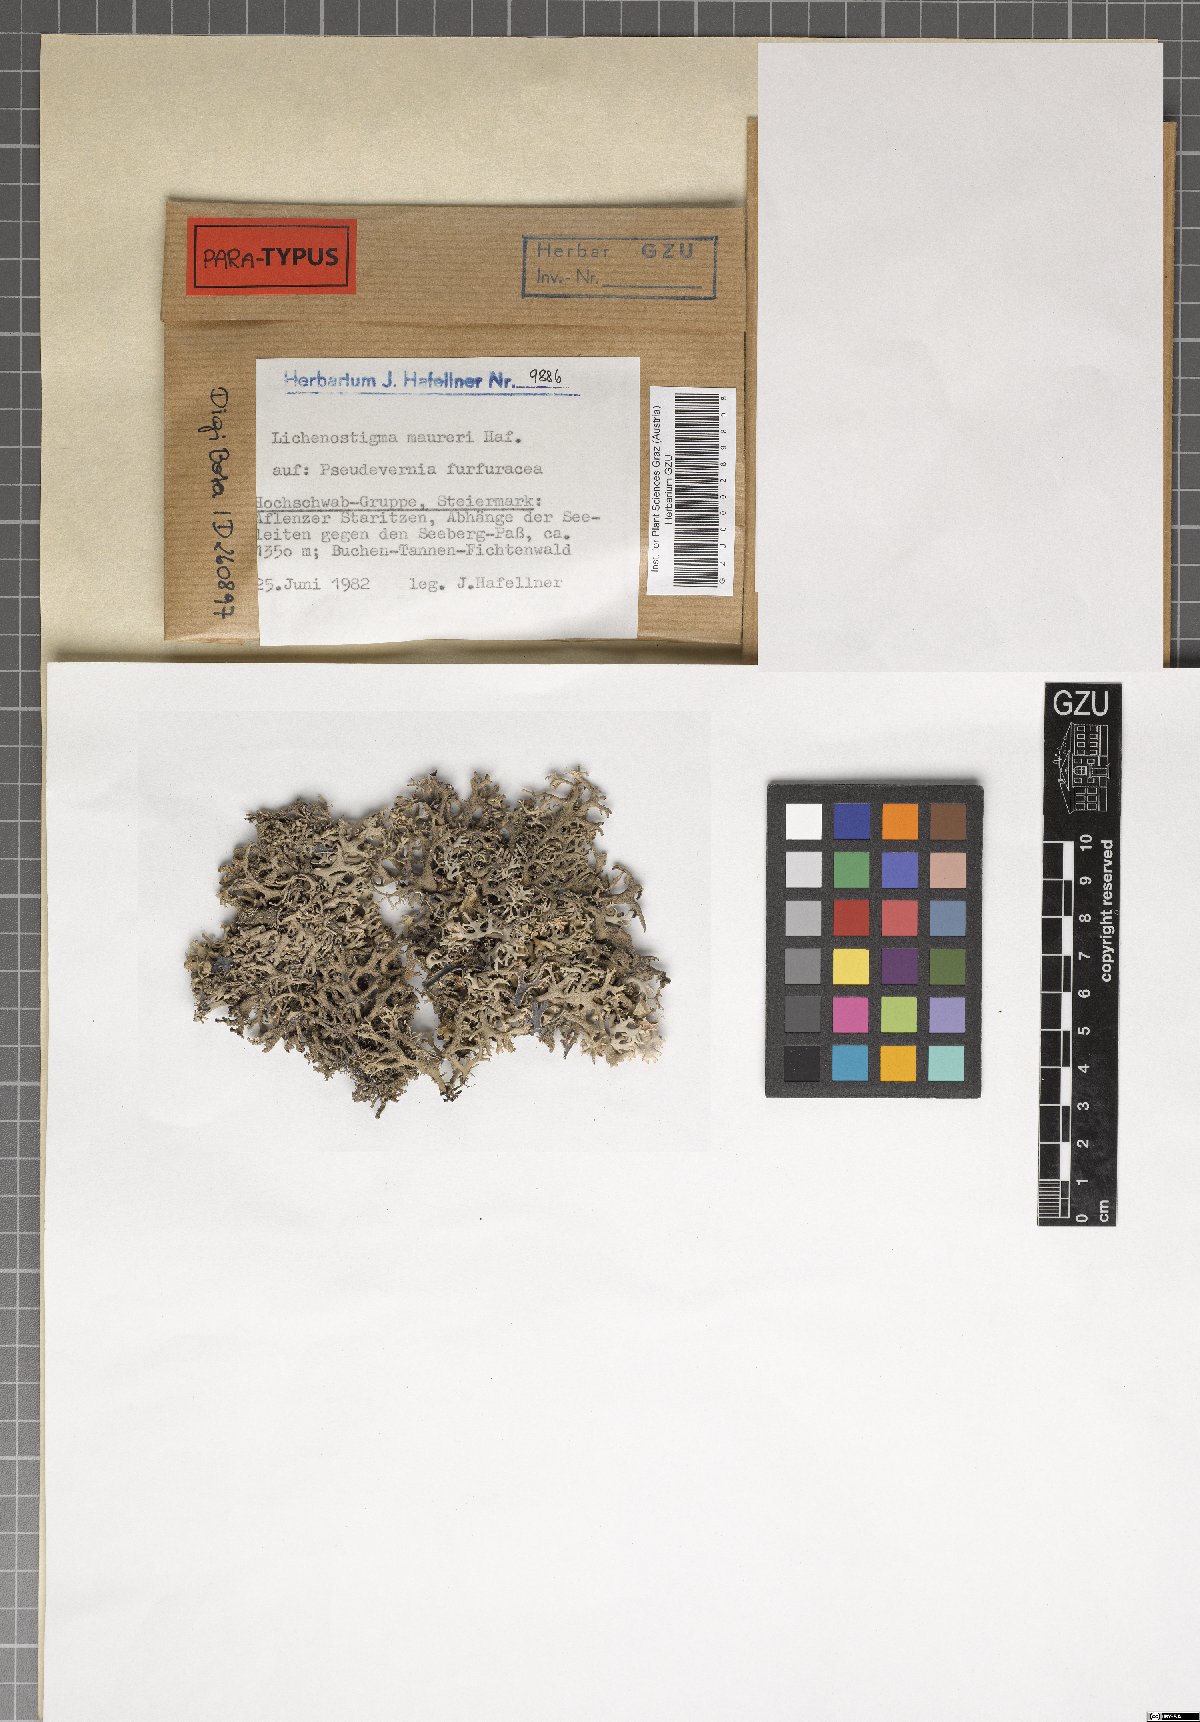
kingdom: Fungi
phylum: Ascomycota
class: Arthoniomycetes
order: Lichenostigmatales
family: Phaeococcomycetaceae
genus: Lichenostigma
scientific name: Lichenostigma maureri
